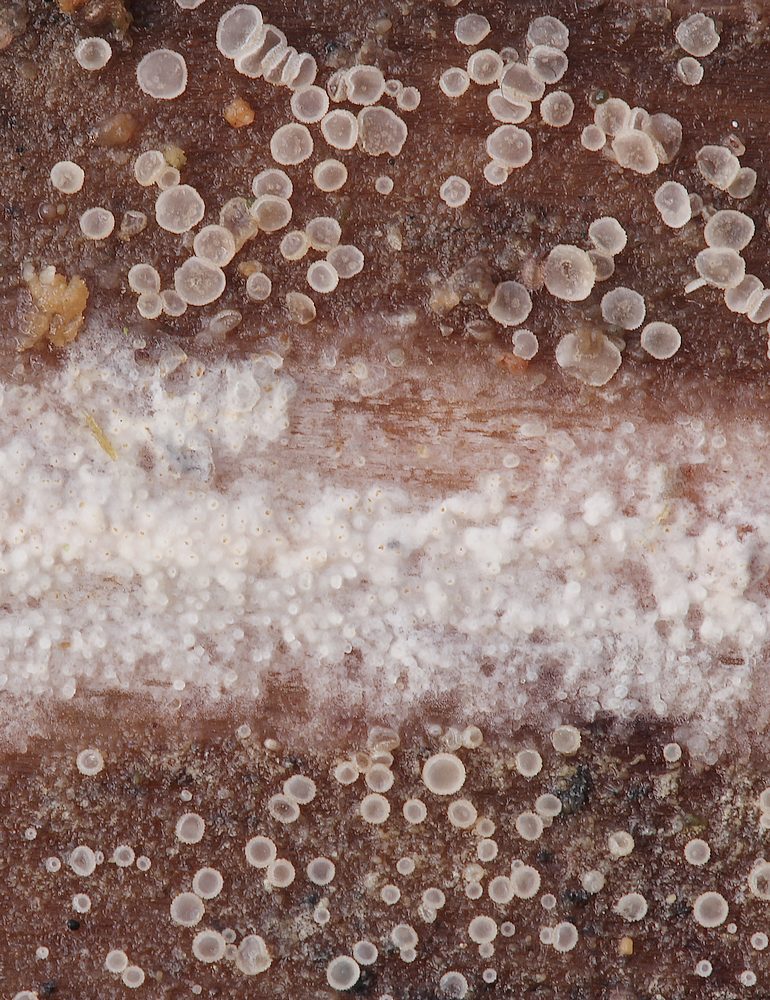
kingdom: Fungi
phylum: Ascomycota
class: Leotiomycetes
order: Helotiales
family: Hyaloscyphaceae
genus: Eupezizella
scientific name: Eupezizella aureliella
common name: almindelig klarskive
